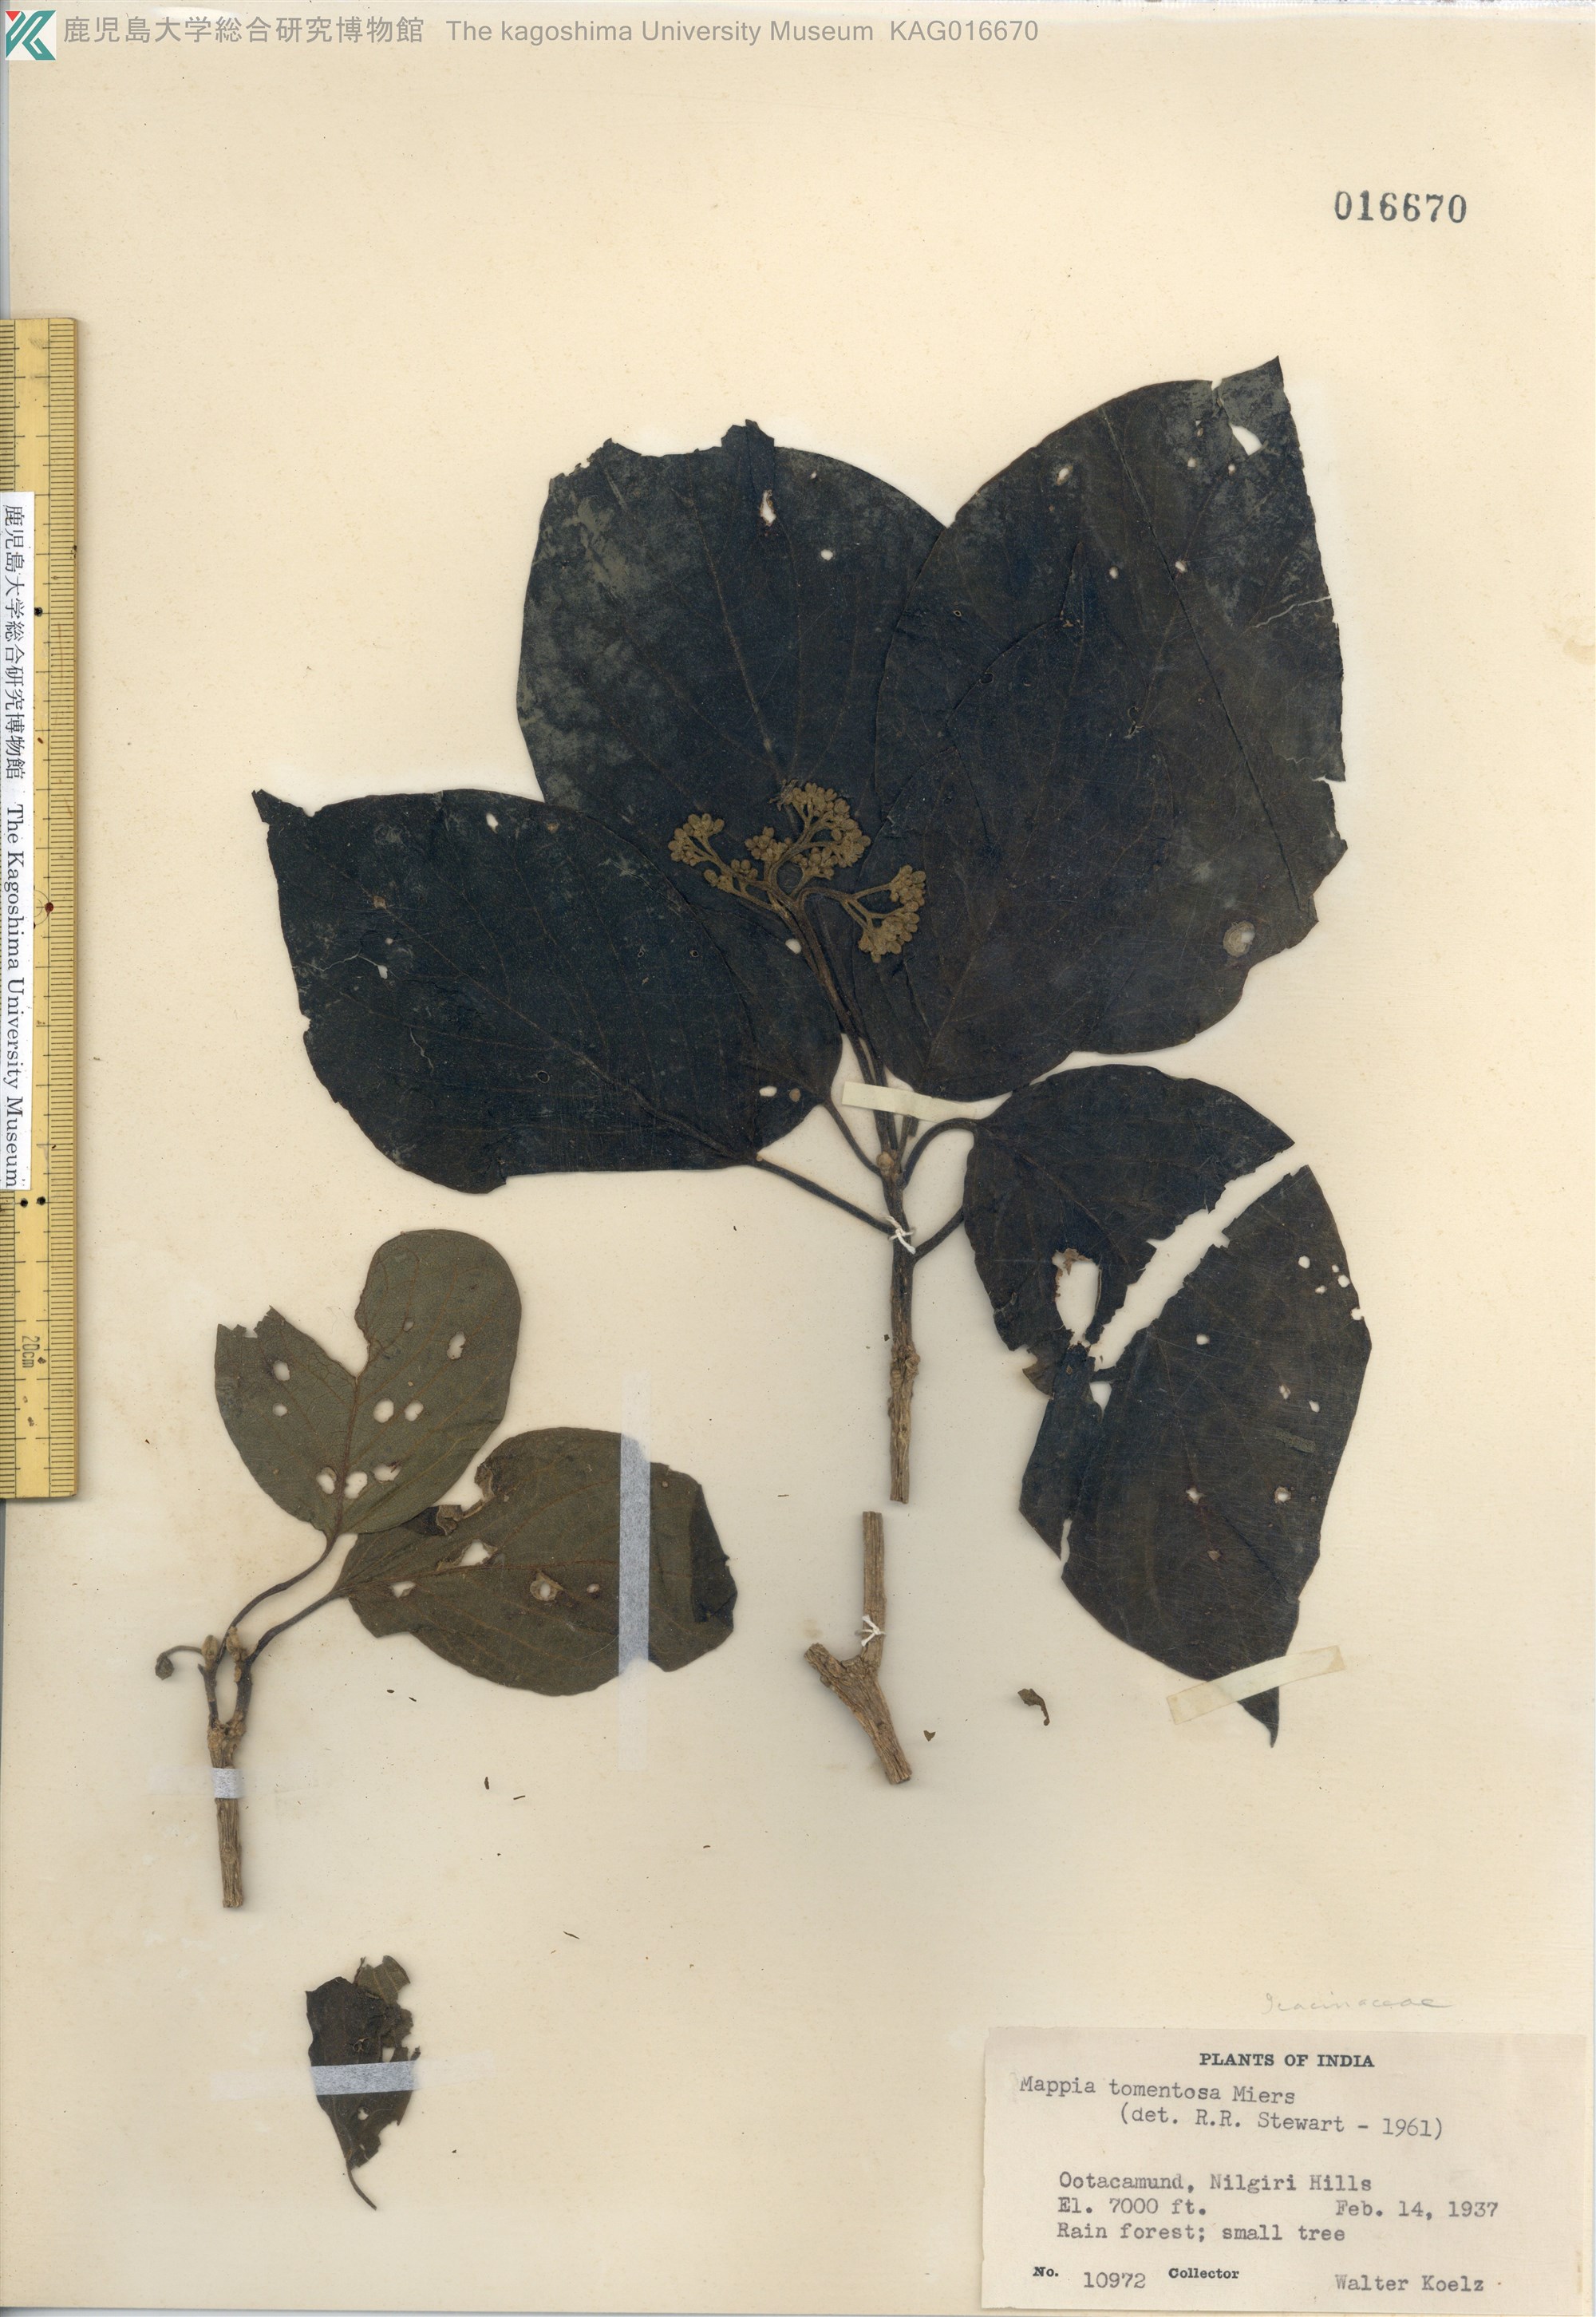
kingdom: Plantae
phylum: Tracheophyta
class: Magnoliopsida
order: Icacinales
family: Icacinaceae
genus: Nothapodytes
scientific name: Nothapodytes tomentosa
